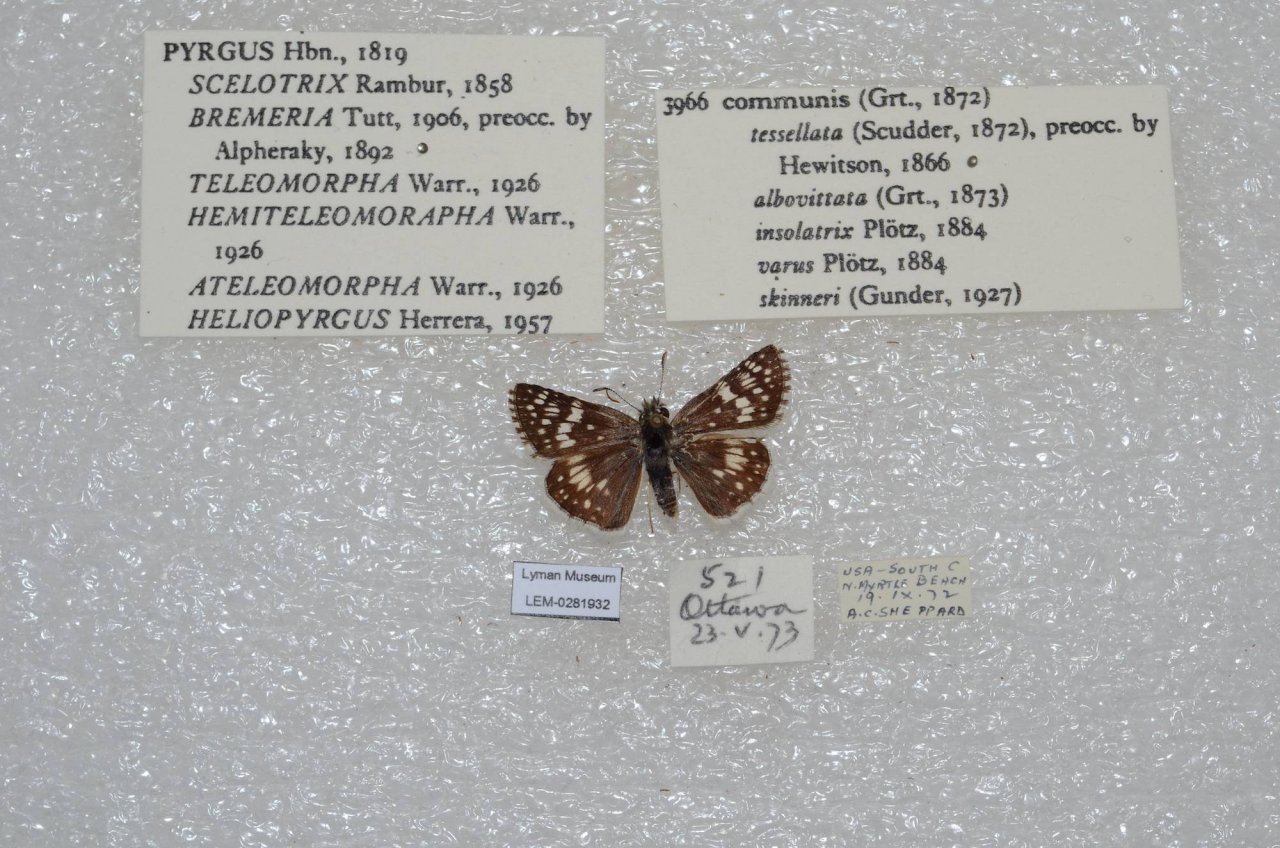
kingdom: Animalia
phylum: Arthropoda
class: Insecta
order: Lepidoptera
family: Hesperiidae
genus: Pyrgus
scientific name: Pyrgus communis
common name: Common Checkered-Skipper
